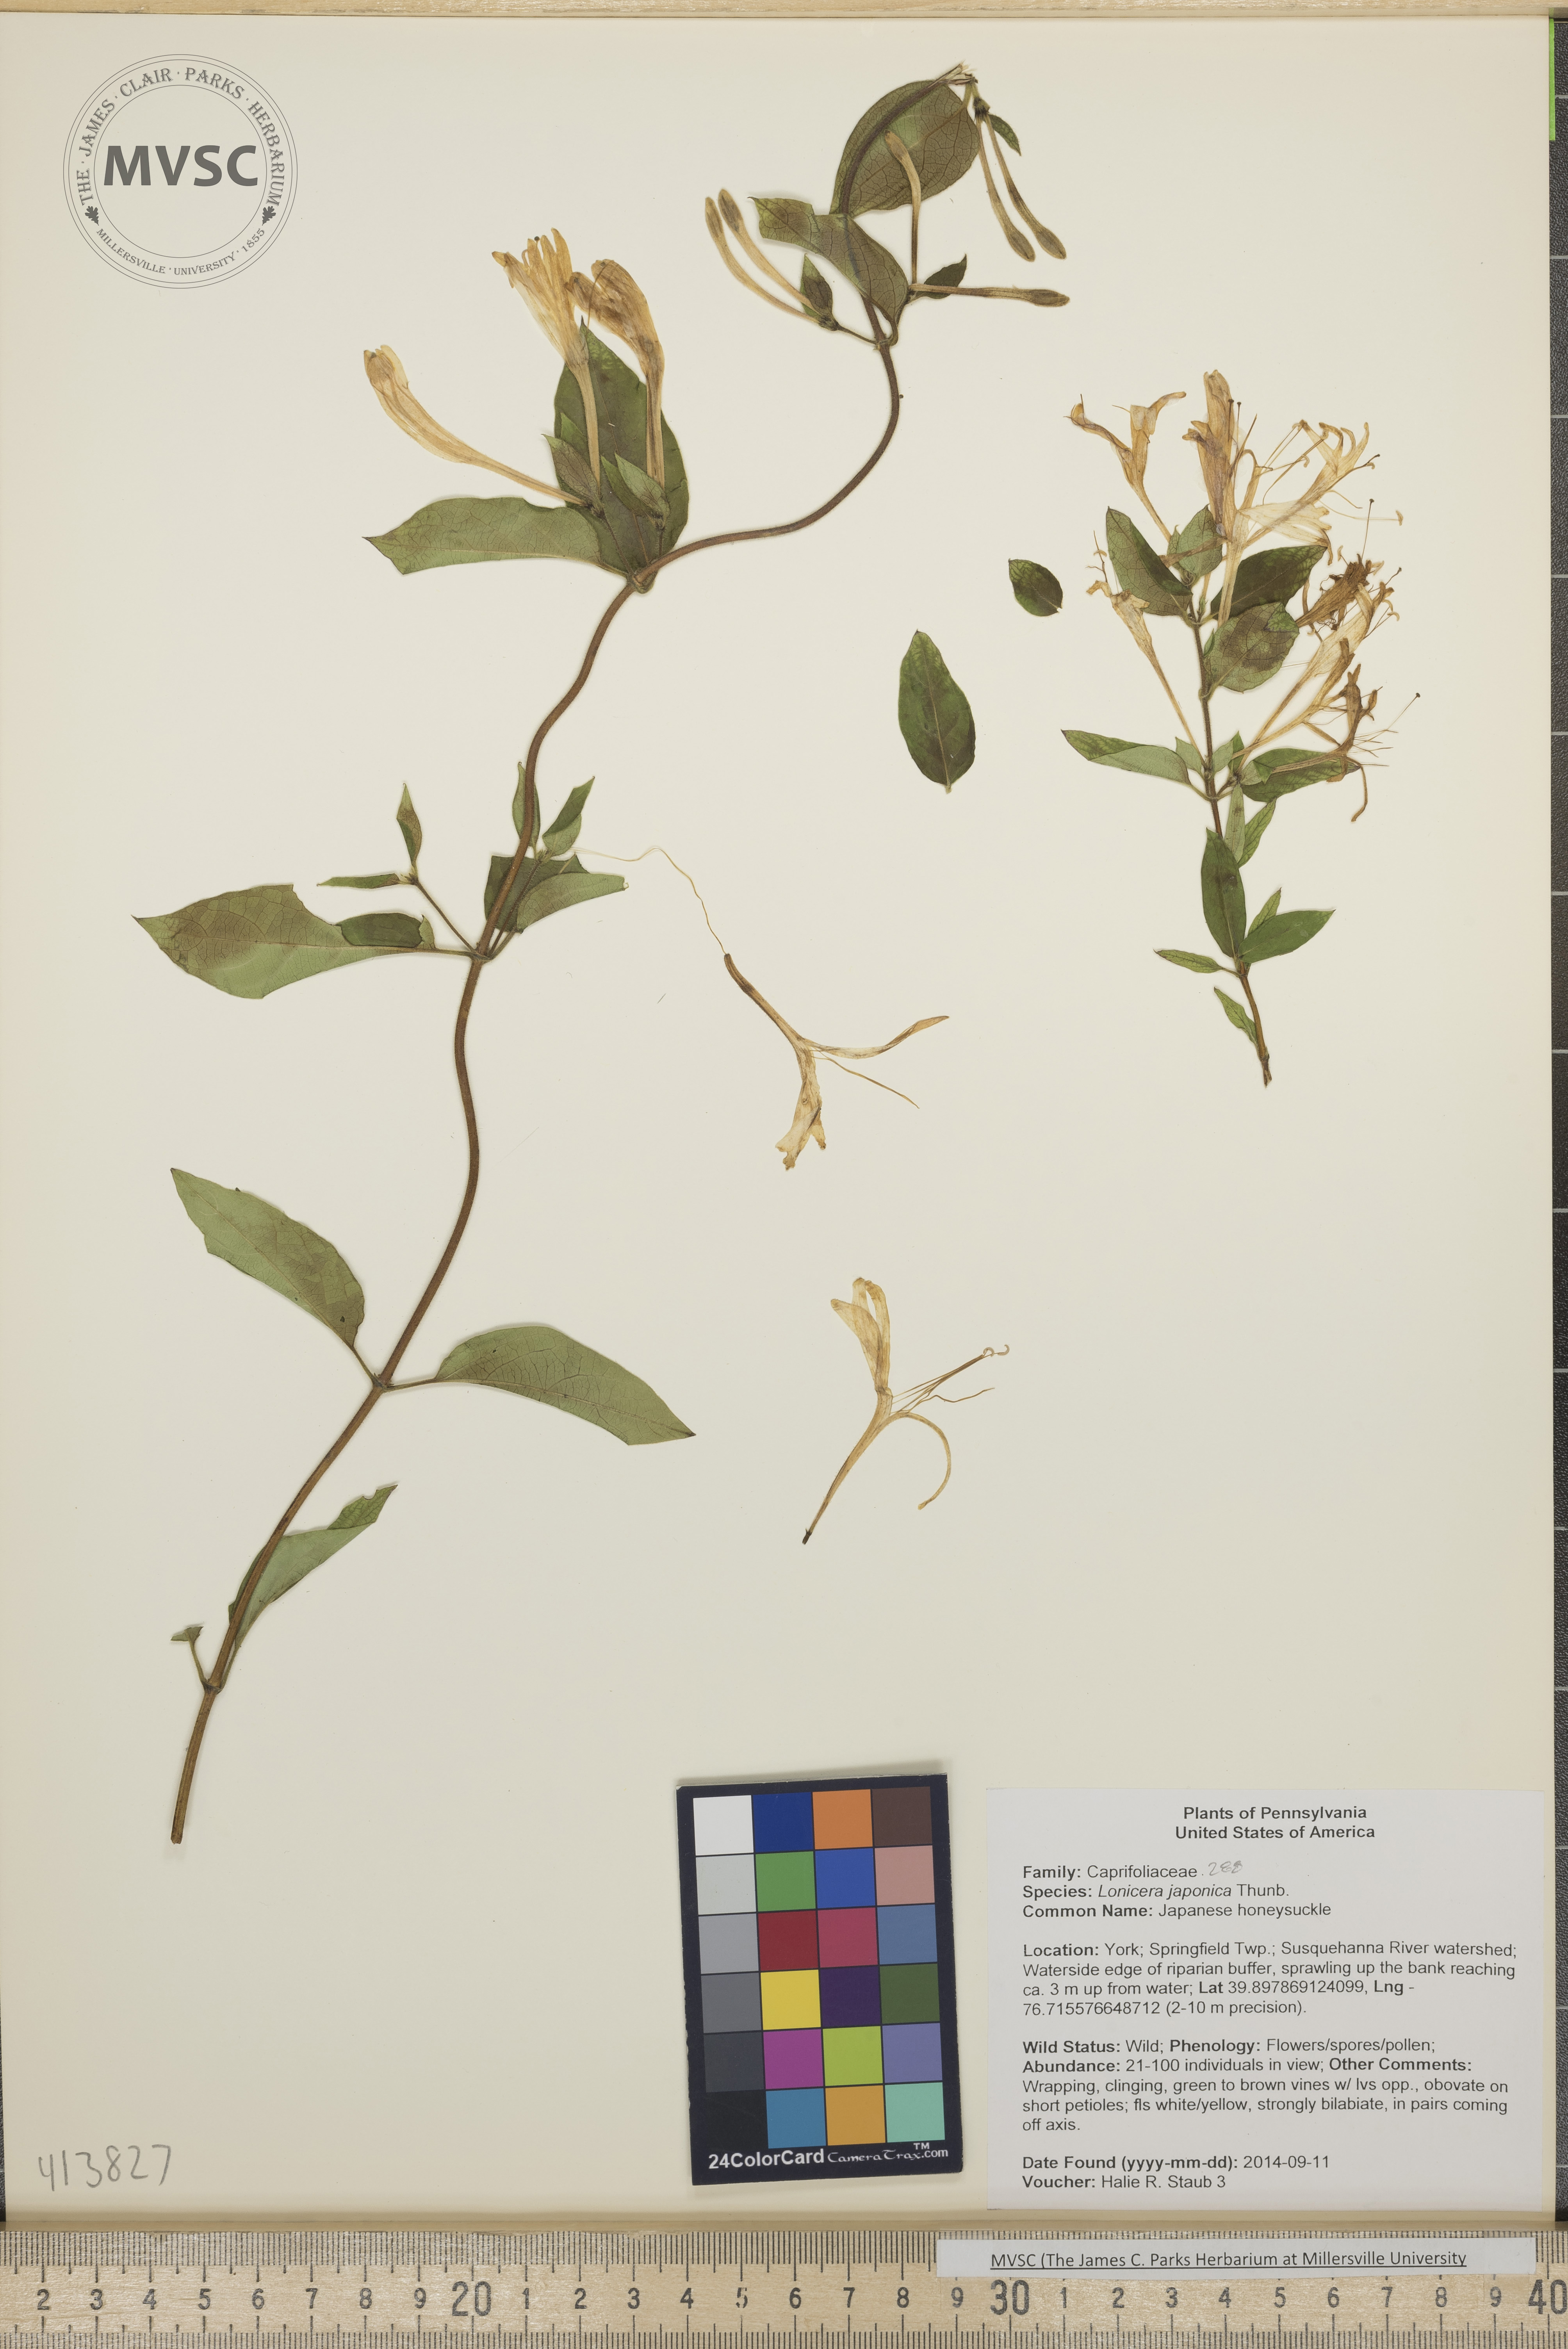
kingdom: Plantae
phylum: Tracheophyta
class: Magnoliopsida
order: Dipsacales
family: Caprifoliaceae
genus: Lonicera
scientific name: Lonicera japonica
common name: Japanese honeysuckle
